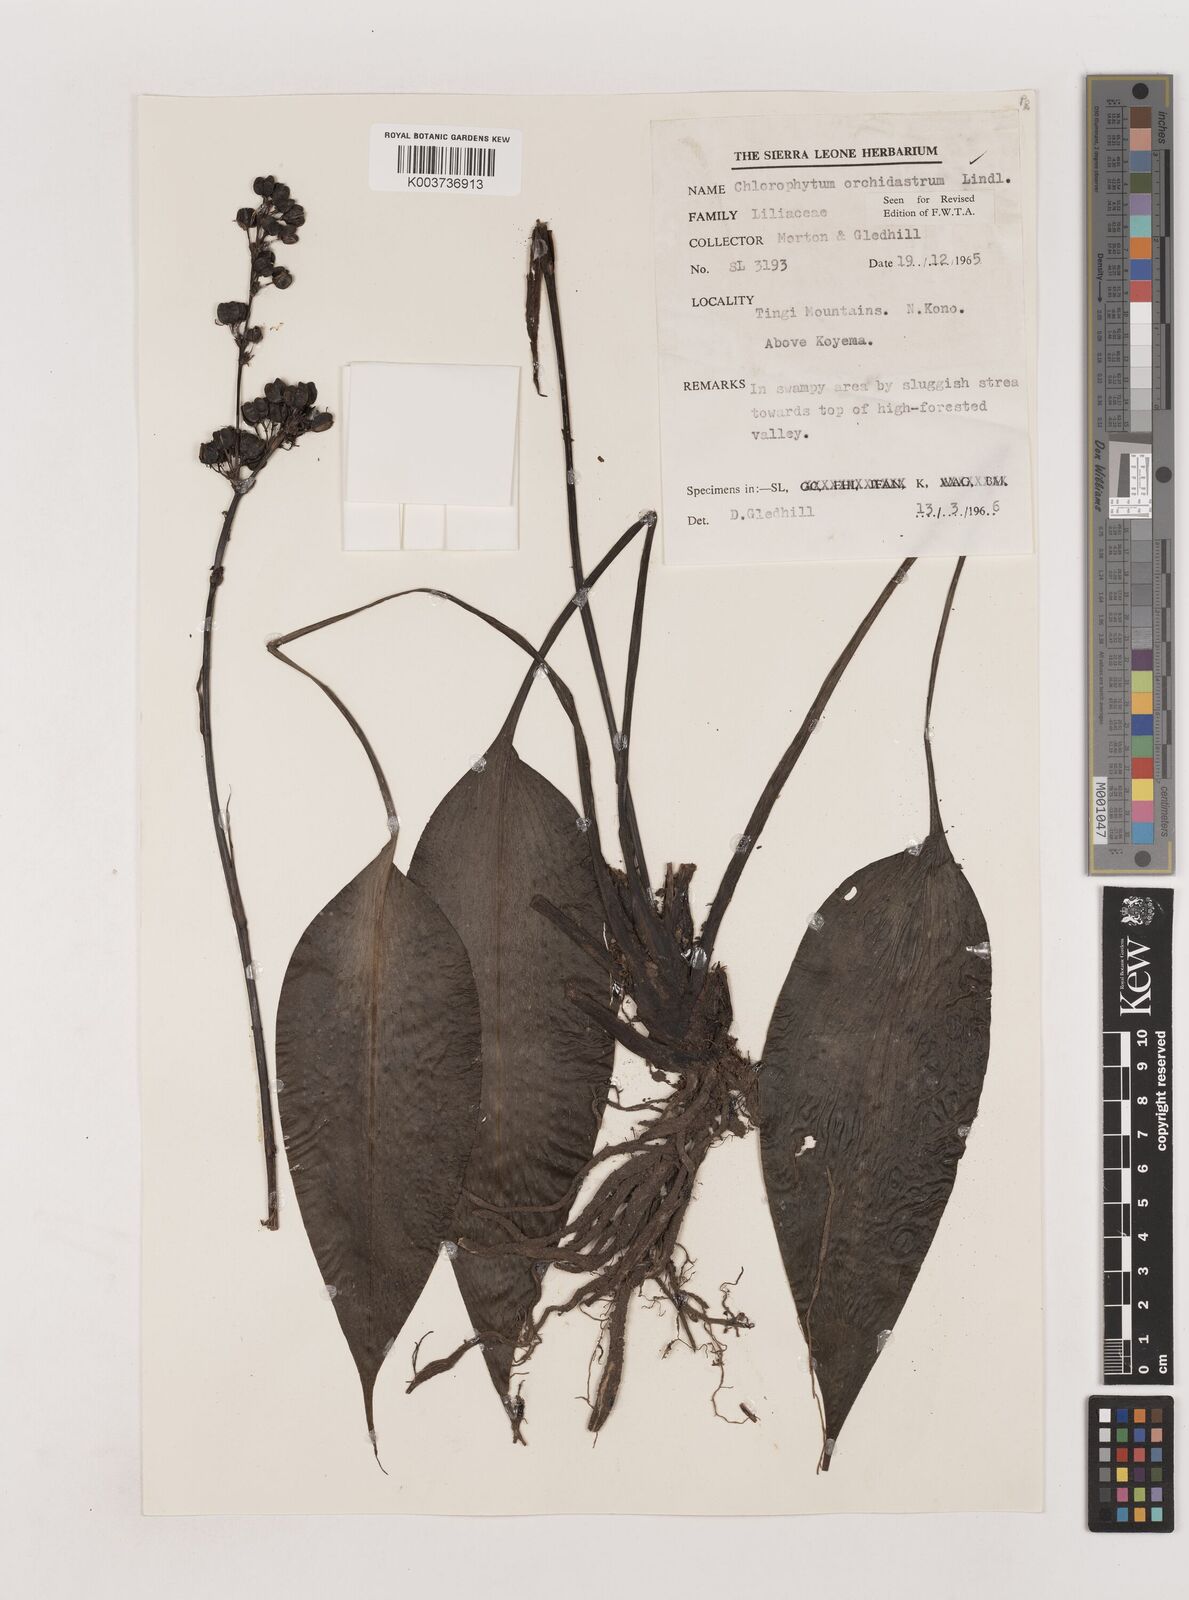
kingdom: Plantae
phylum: Tracheophyta
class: Liliopsida
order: Asparagales
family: Asparagaceae
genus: Chlorophytum
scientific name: Chlorophytum orchidastrum
